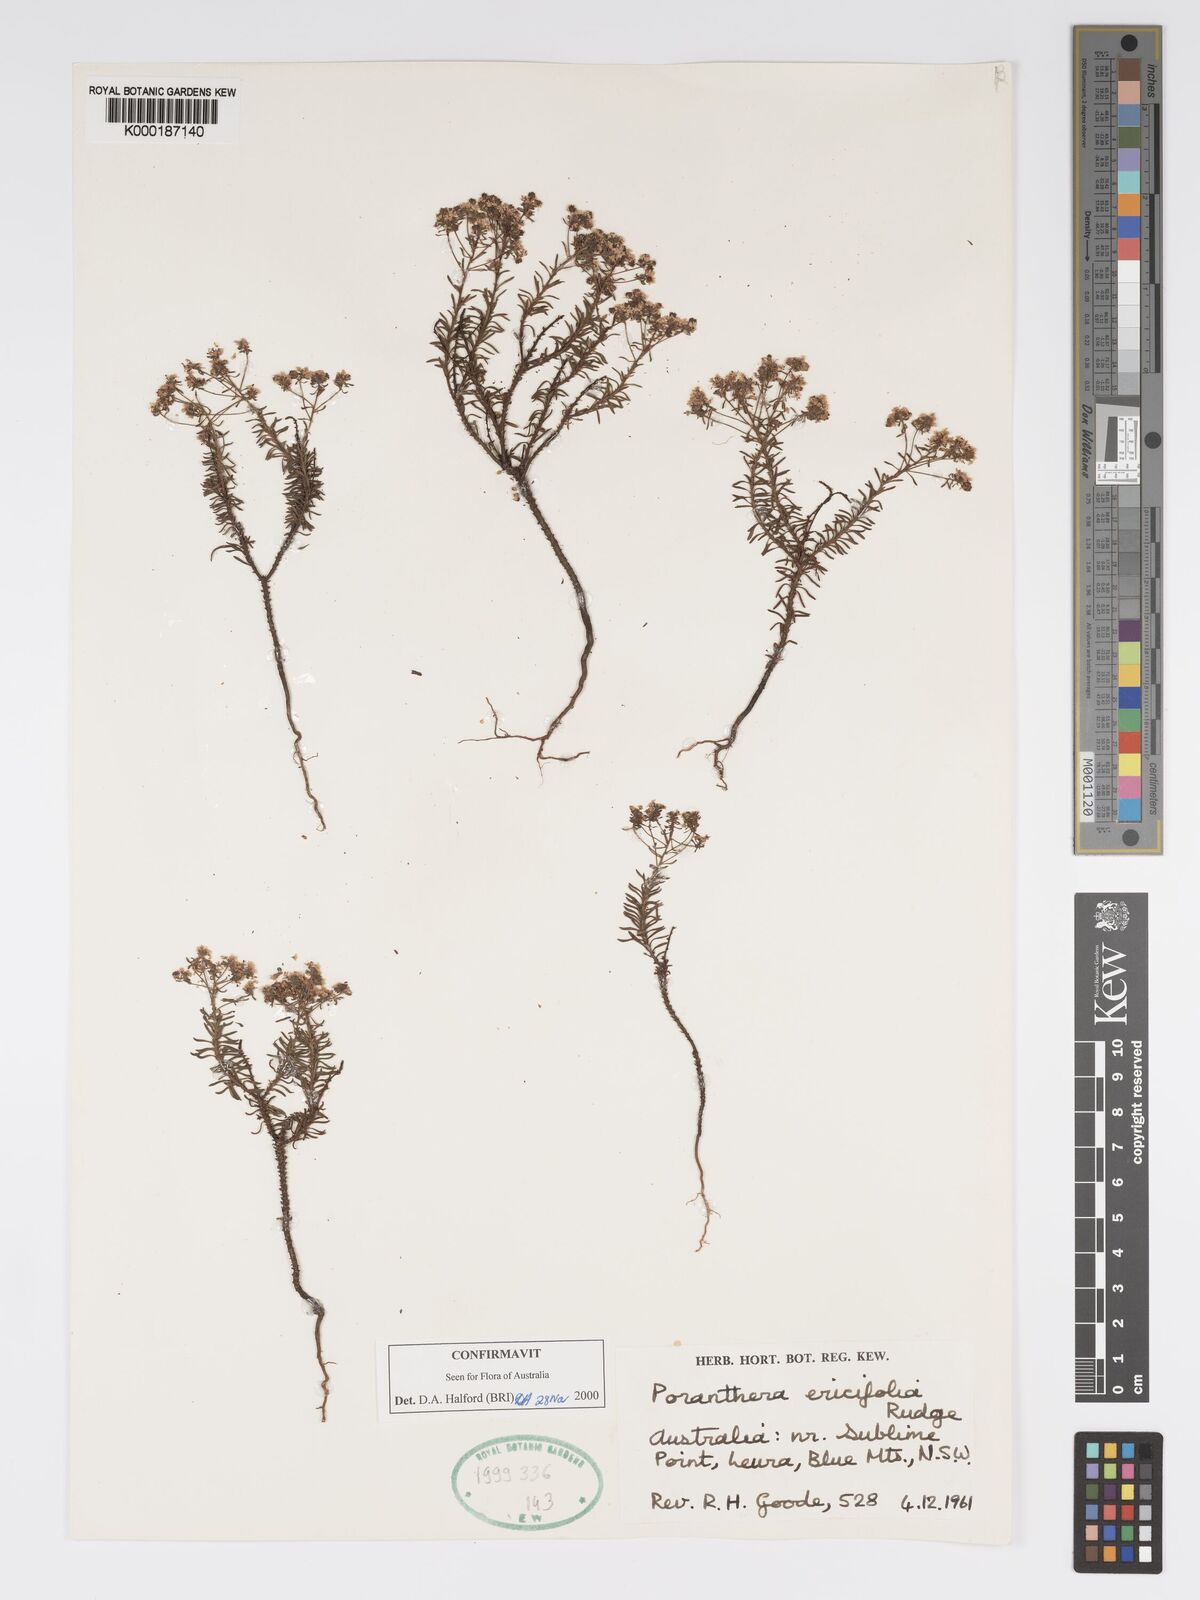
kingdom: Plantae
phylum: Tracheophyta
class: Magnoliopsida
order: Malpighiales
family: Phyllanthaceae
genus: Poranthera
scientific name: Poranthera ericifolia
